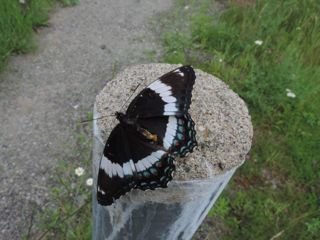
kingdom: Animalia
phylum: Arthropoda
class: Insecta
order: Lepidoptera
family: Nymphalidae
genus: Limenitis
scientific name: Limenitis arthemis
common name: Red-spotted Admiral
